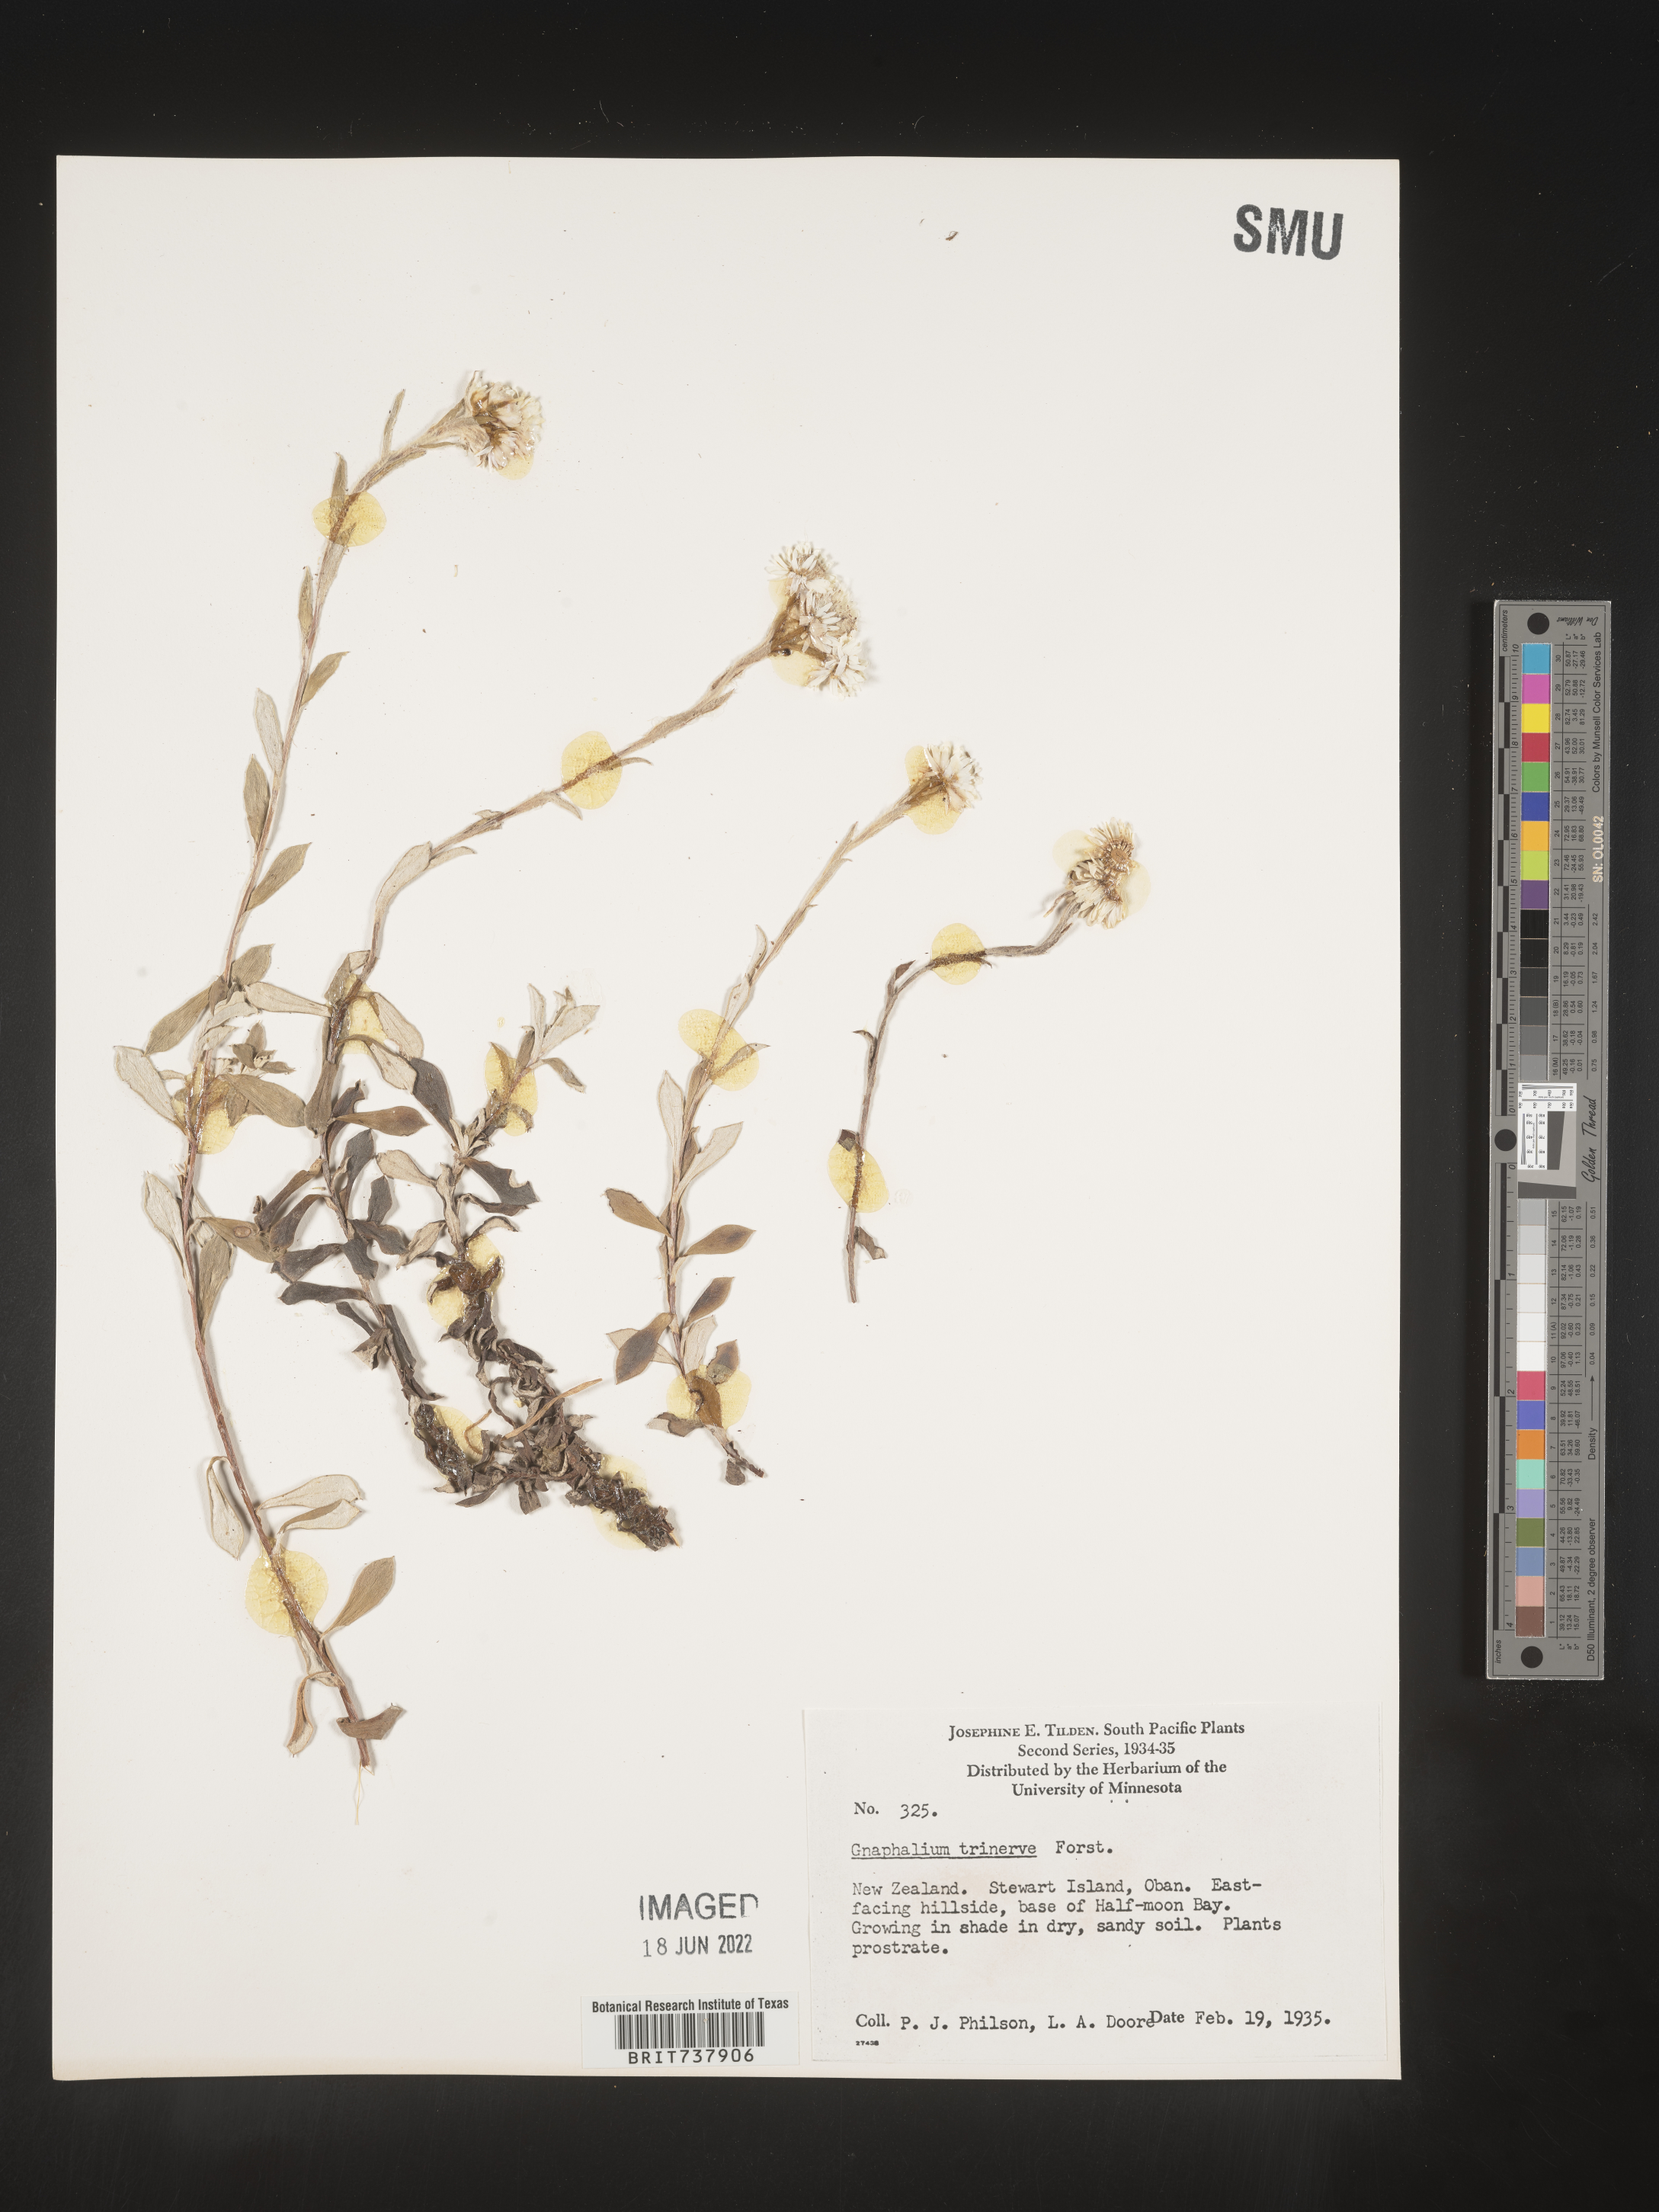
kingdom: Plantae
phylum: Tracheophyta
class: Magnoliopsida
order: Asterales
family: Asteraceae
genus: Pseudognaphalium
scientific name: Pseudognaphalium
